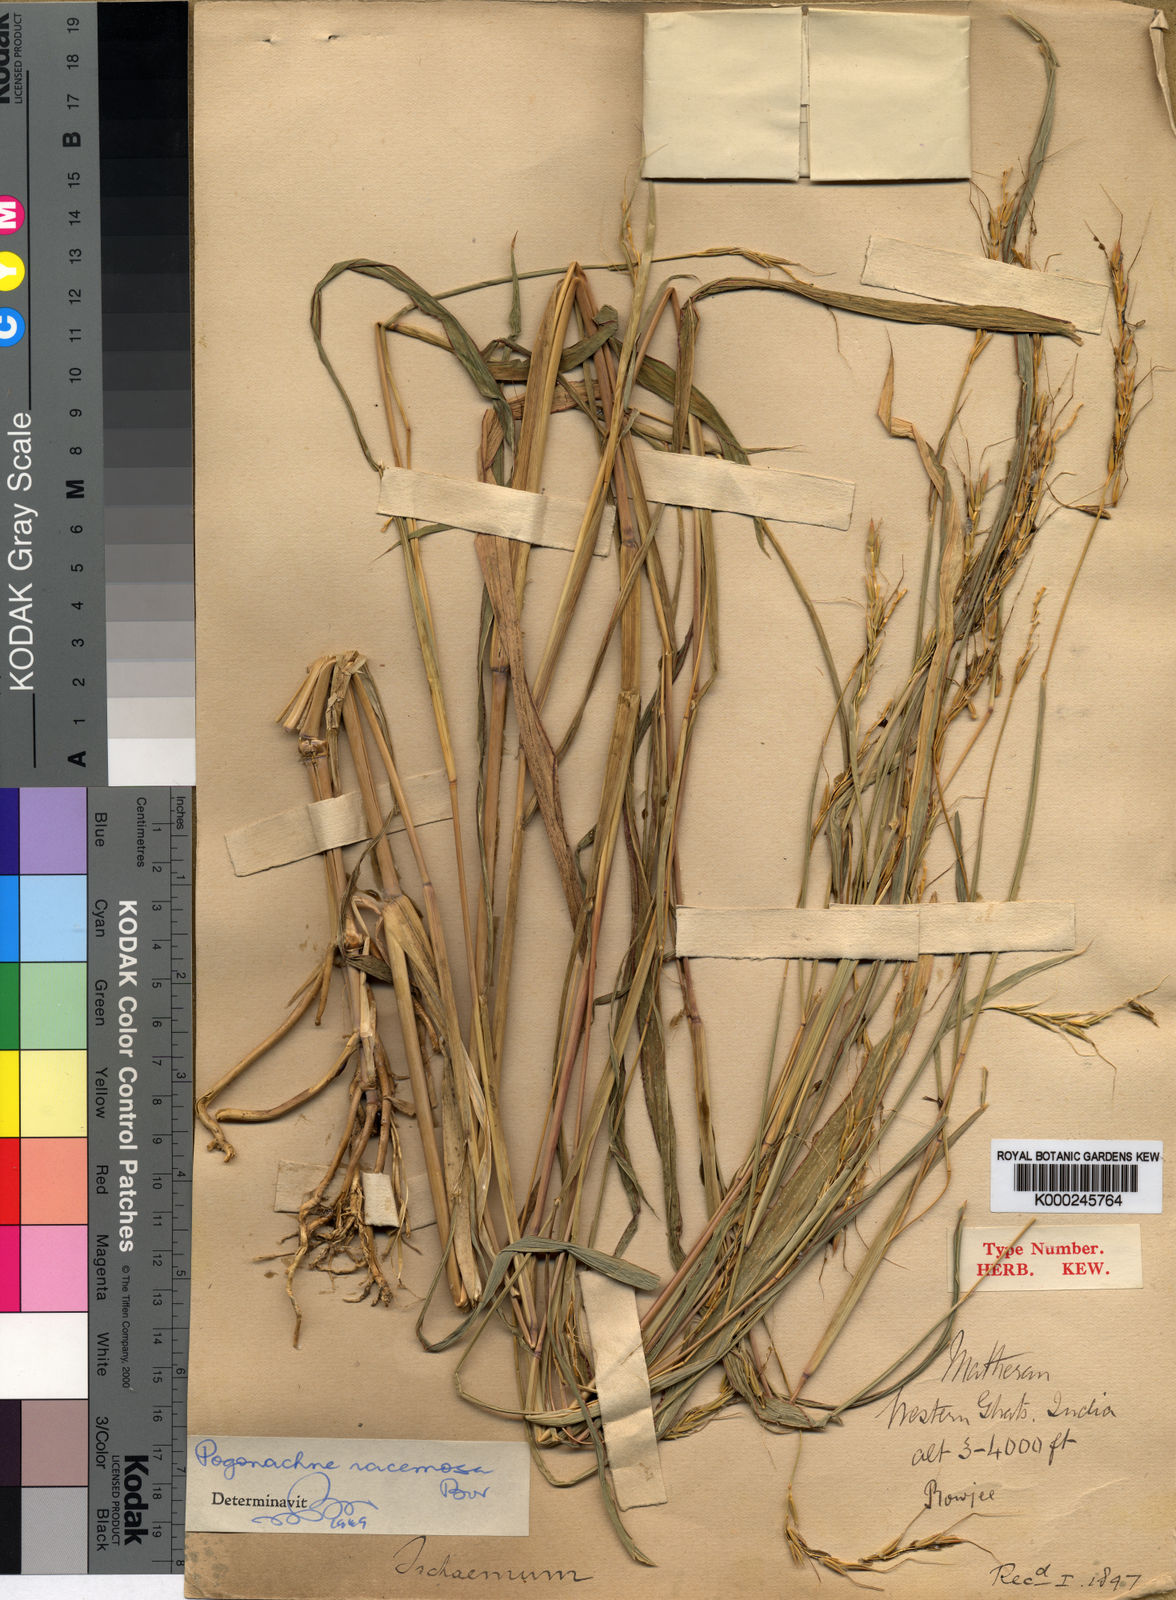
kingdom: Plantae
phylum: Tracheophyta
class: Liliopsida
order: Poales
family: Poaceae
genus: Pogonachne
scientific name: Pogonachne racemosa
